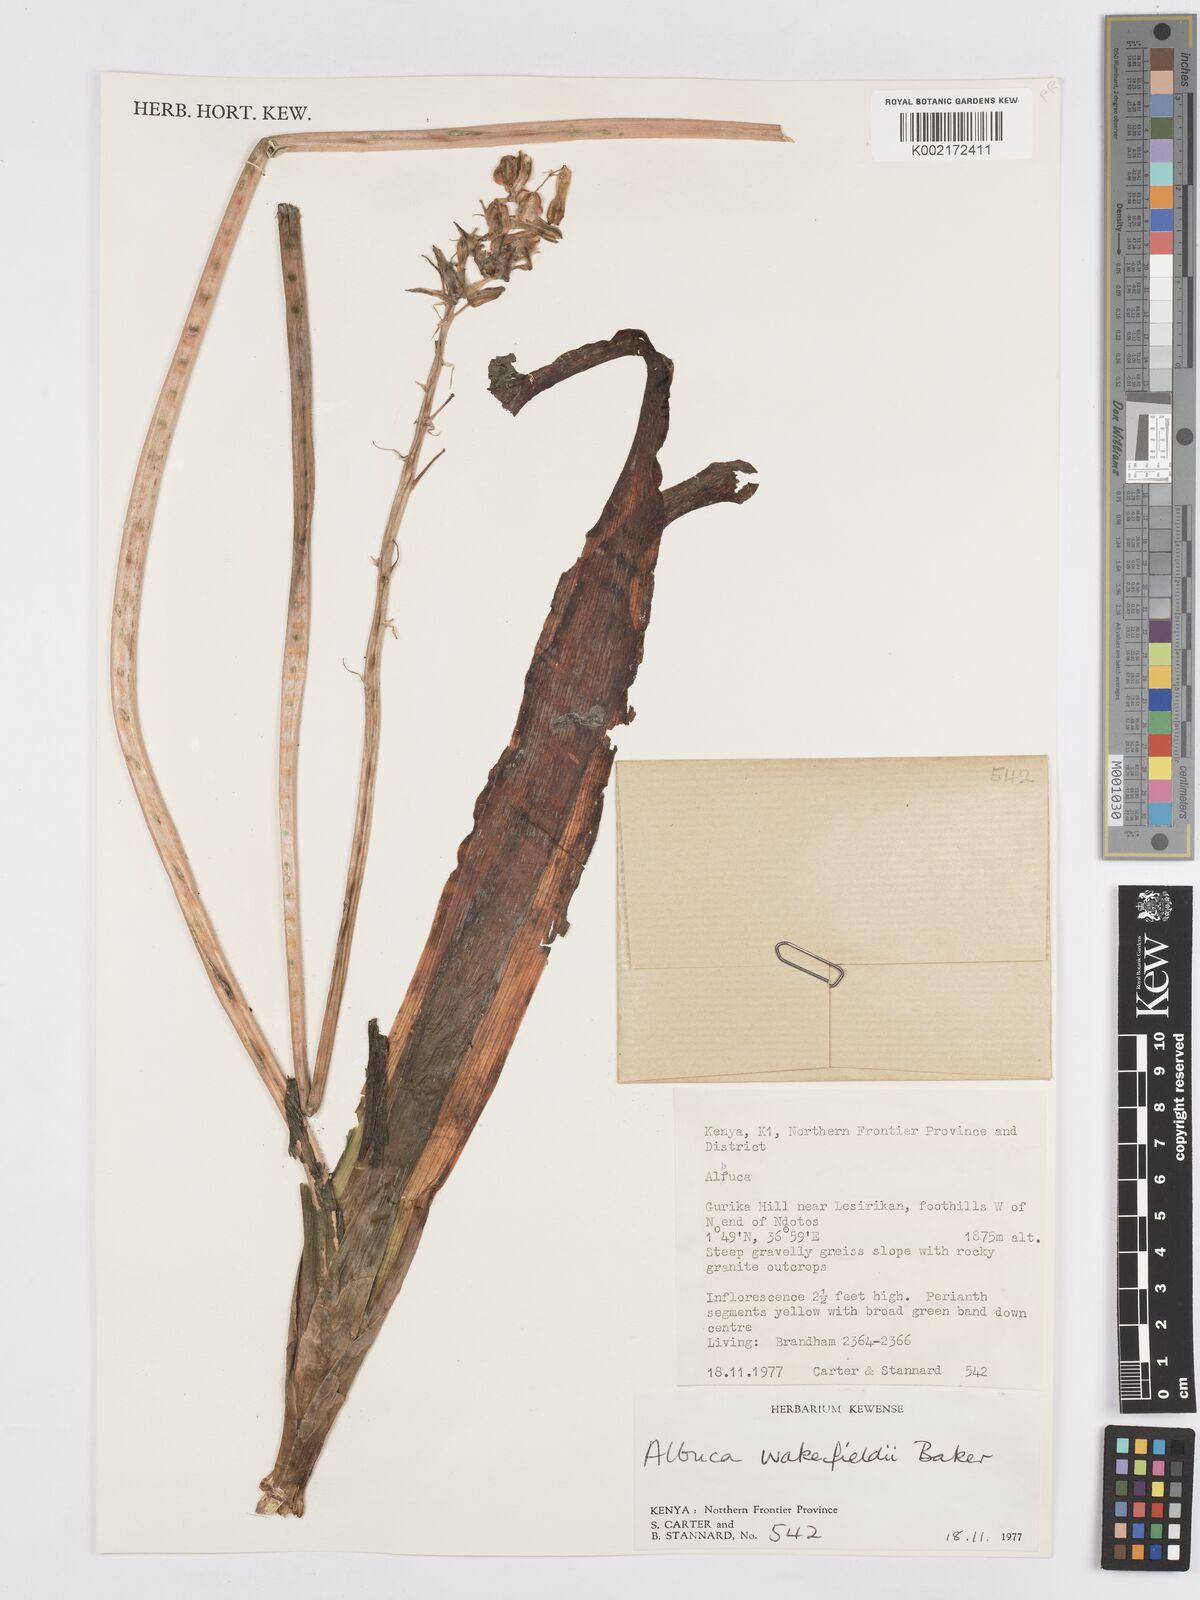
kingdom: Plantae
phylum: Tracheophyta
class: Liliopsida
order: Asparagales
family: Asparagaceae
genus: Albuca
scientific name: Albuca abyssinica
